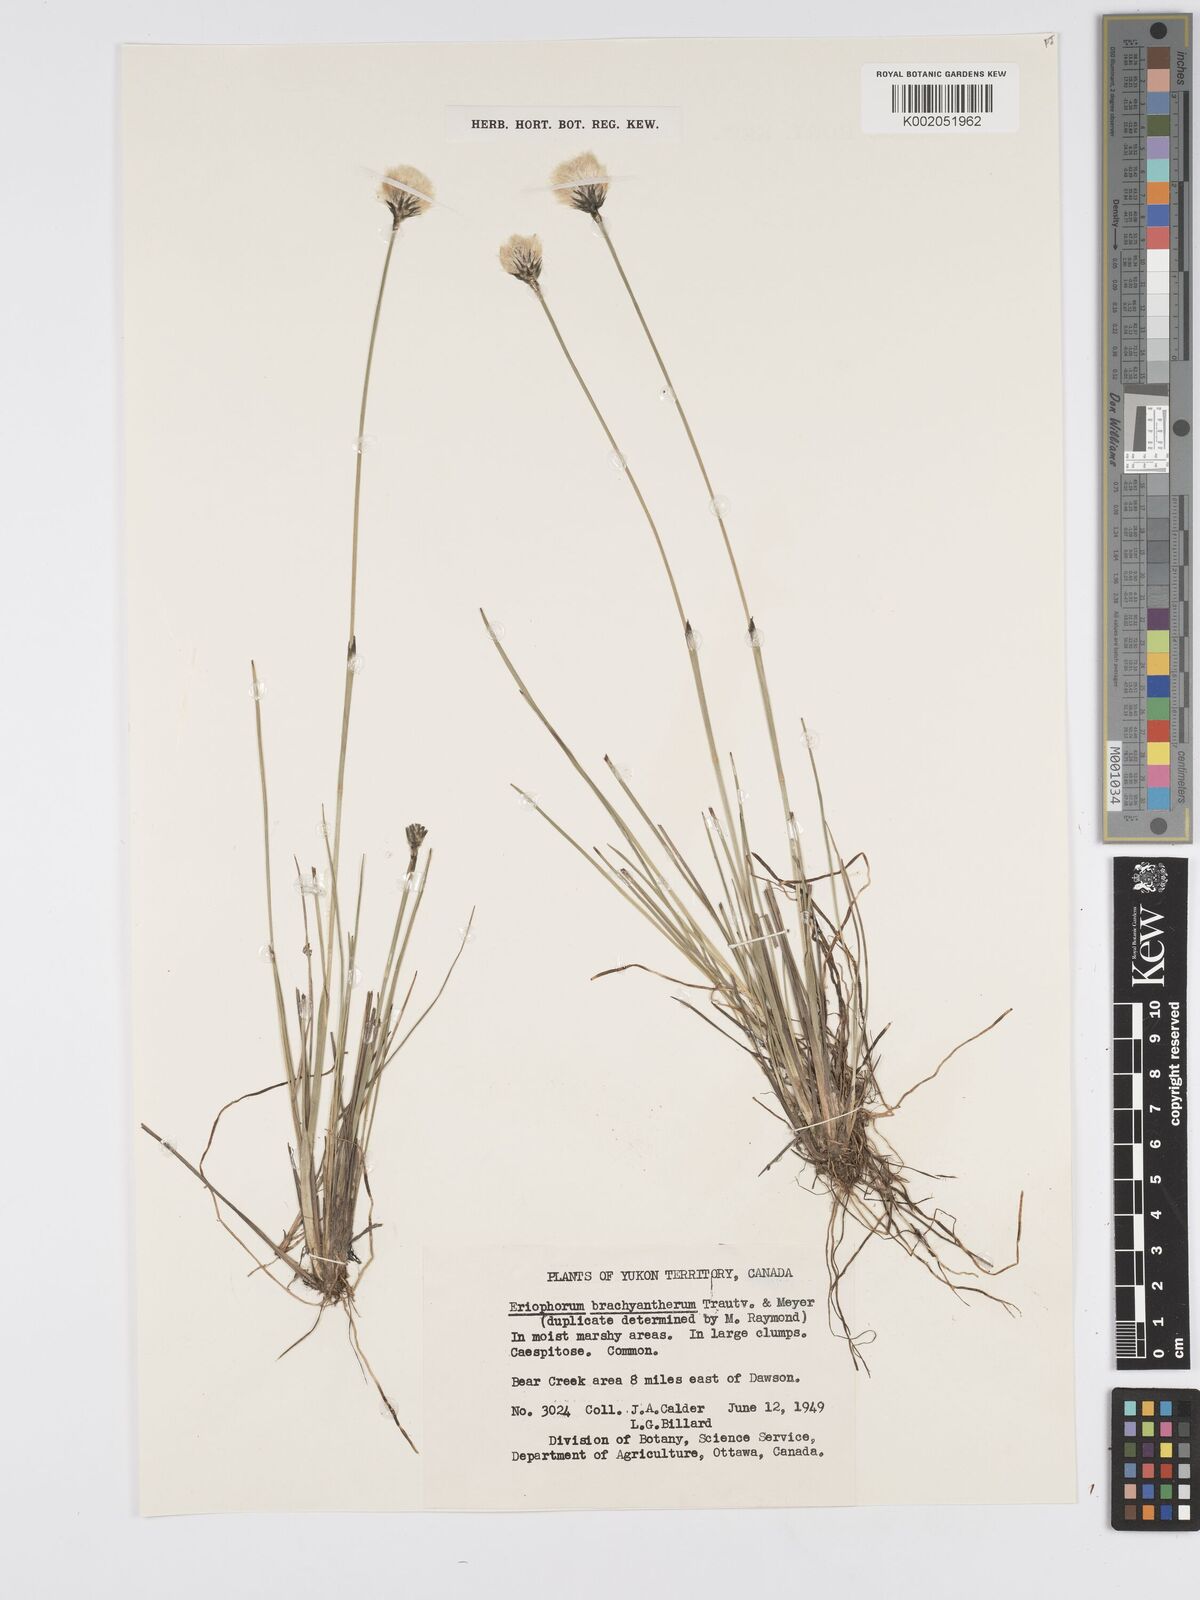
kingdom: Plantae
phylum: Tracheophyta
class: Liliopsida
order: Poales
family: Cyperaceae
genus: Eriophorum
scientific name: Eriophorum brachyantherum
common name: Closed-sheathed cottongrass
